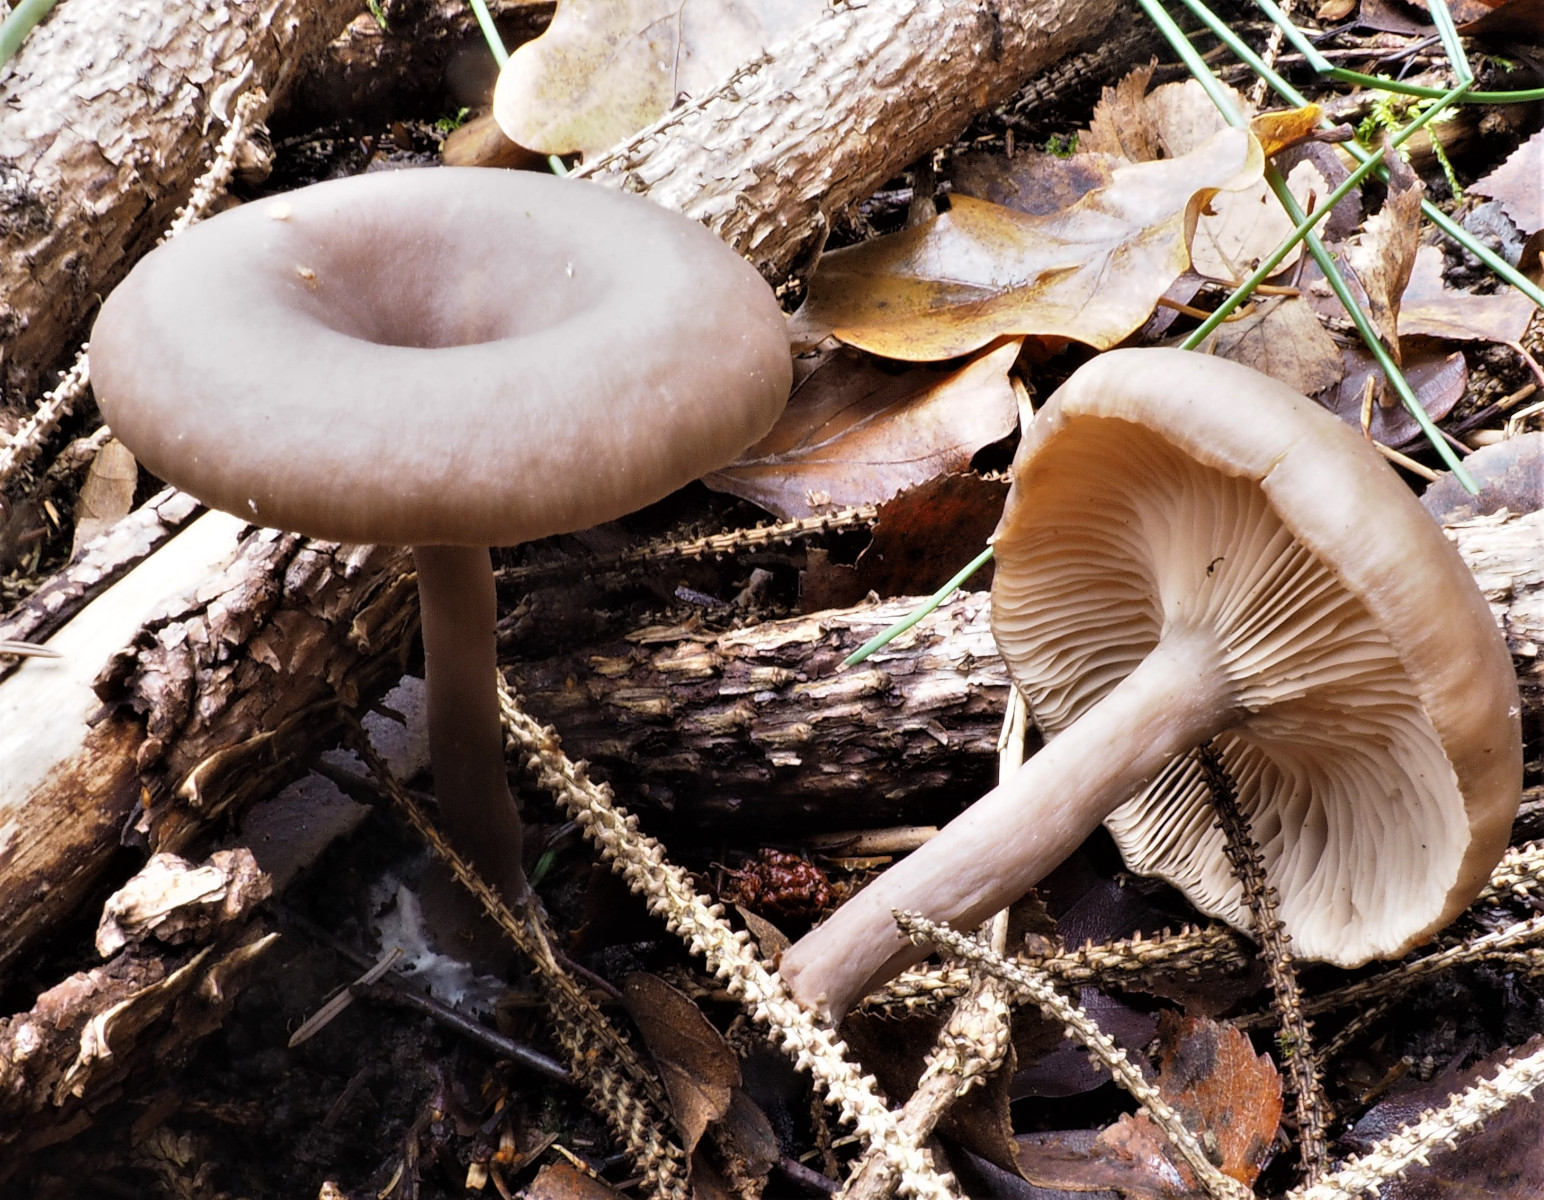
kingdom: Fungi
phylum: Basidiomycota
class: Agaricomycetes
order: Agaricales
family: Pseudoclitocybaceae
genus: Pseudoclitocybe
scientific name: Pseudoclitocybe cyathiformis
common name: almindelig bægertragthat
